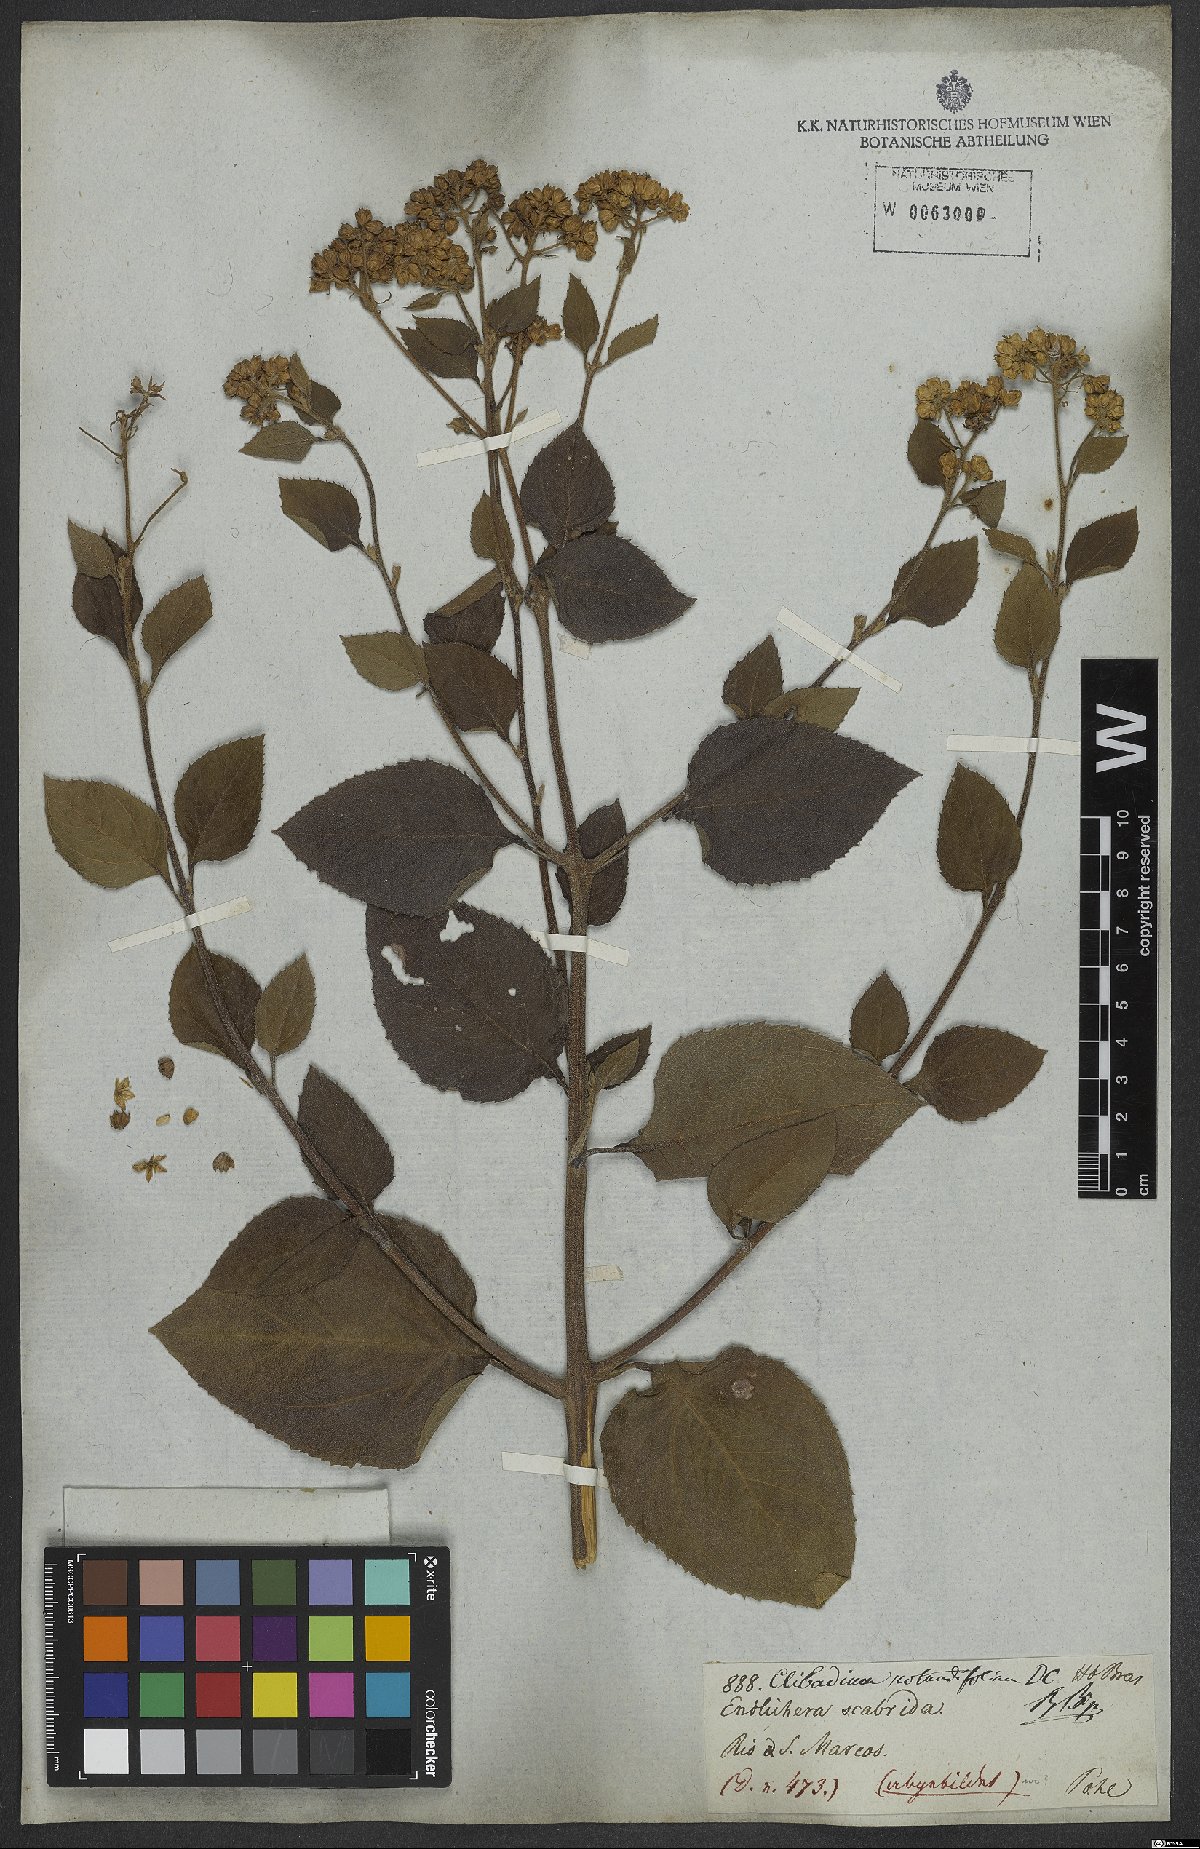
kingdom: Plantae
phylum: Tracheophyta
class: Magnoliopsida
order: Asterales
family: Asteraceae
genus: Clibadium
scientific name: Clibadium armanii
